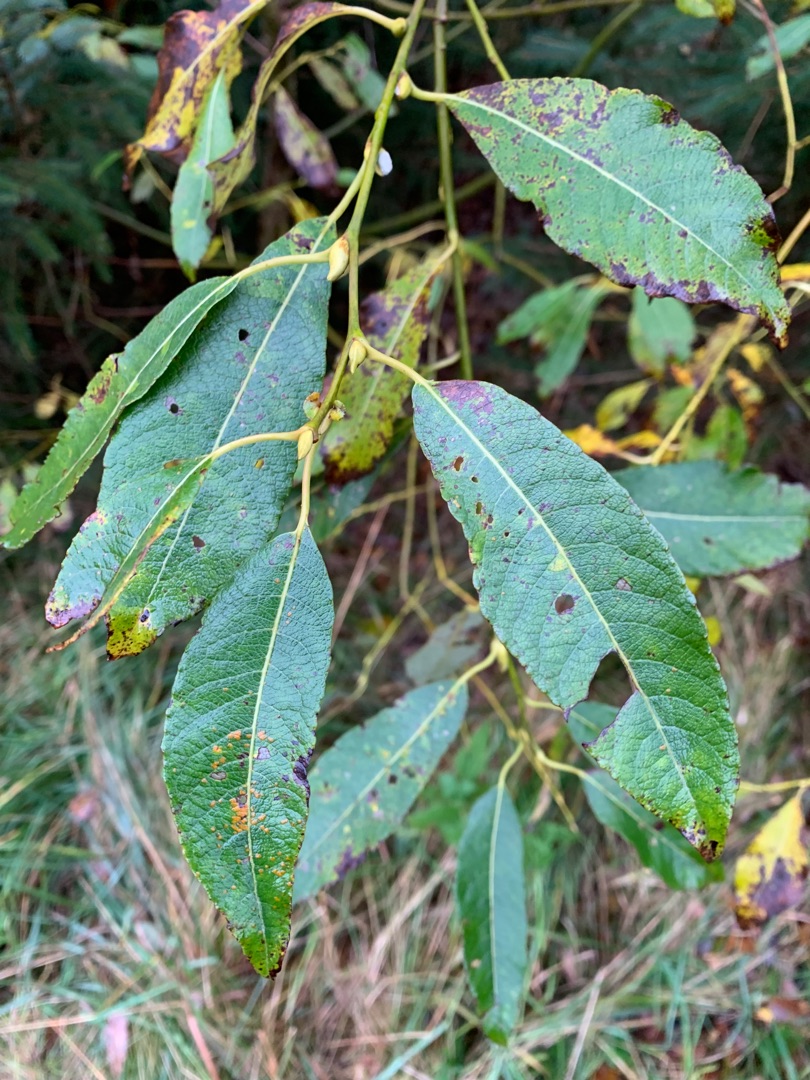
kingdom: Plantae
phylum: Tracheophyta
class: Magnoliopsida
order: Malpighiales
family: Salicaceae
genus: Salix
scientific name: Salix smithiana
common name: Lancet-pil
